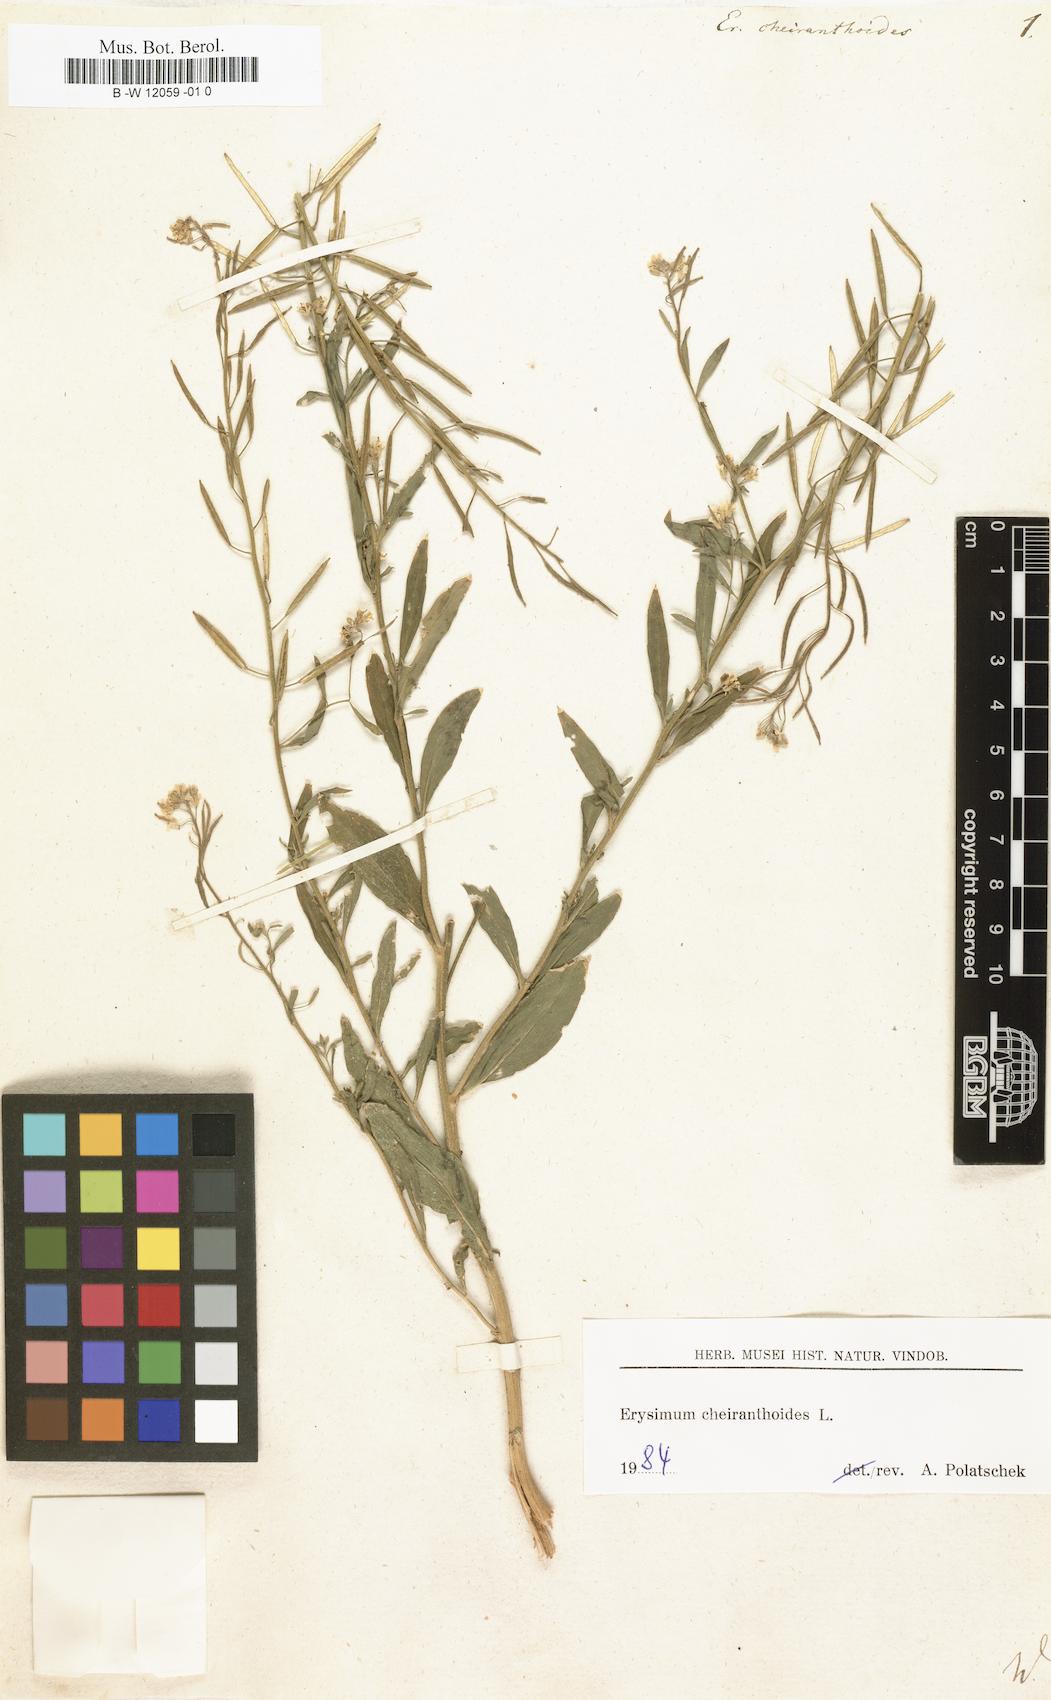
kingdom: Plantae
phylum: Tracheophyta
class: Magnoliopsida
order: Brassicales
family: Brassicaceae
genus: Erysimum
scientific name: Erysimum cheiranthoides
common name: Treacle mustard
